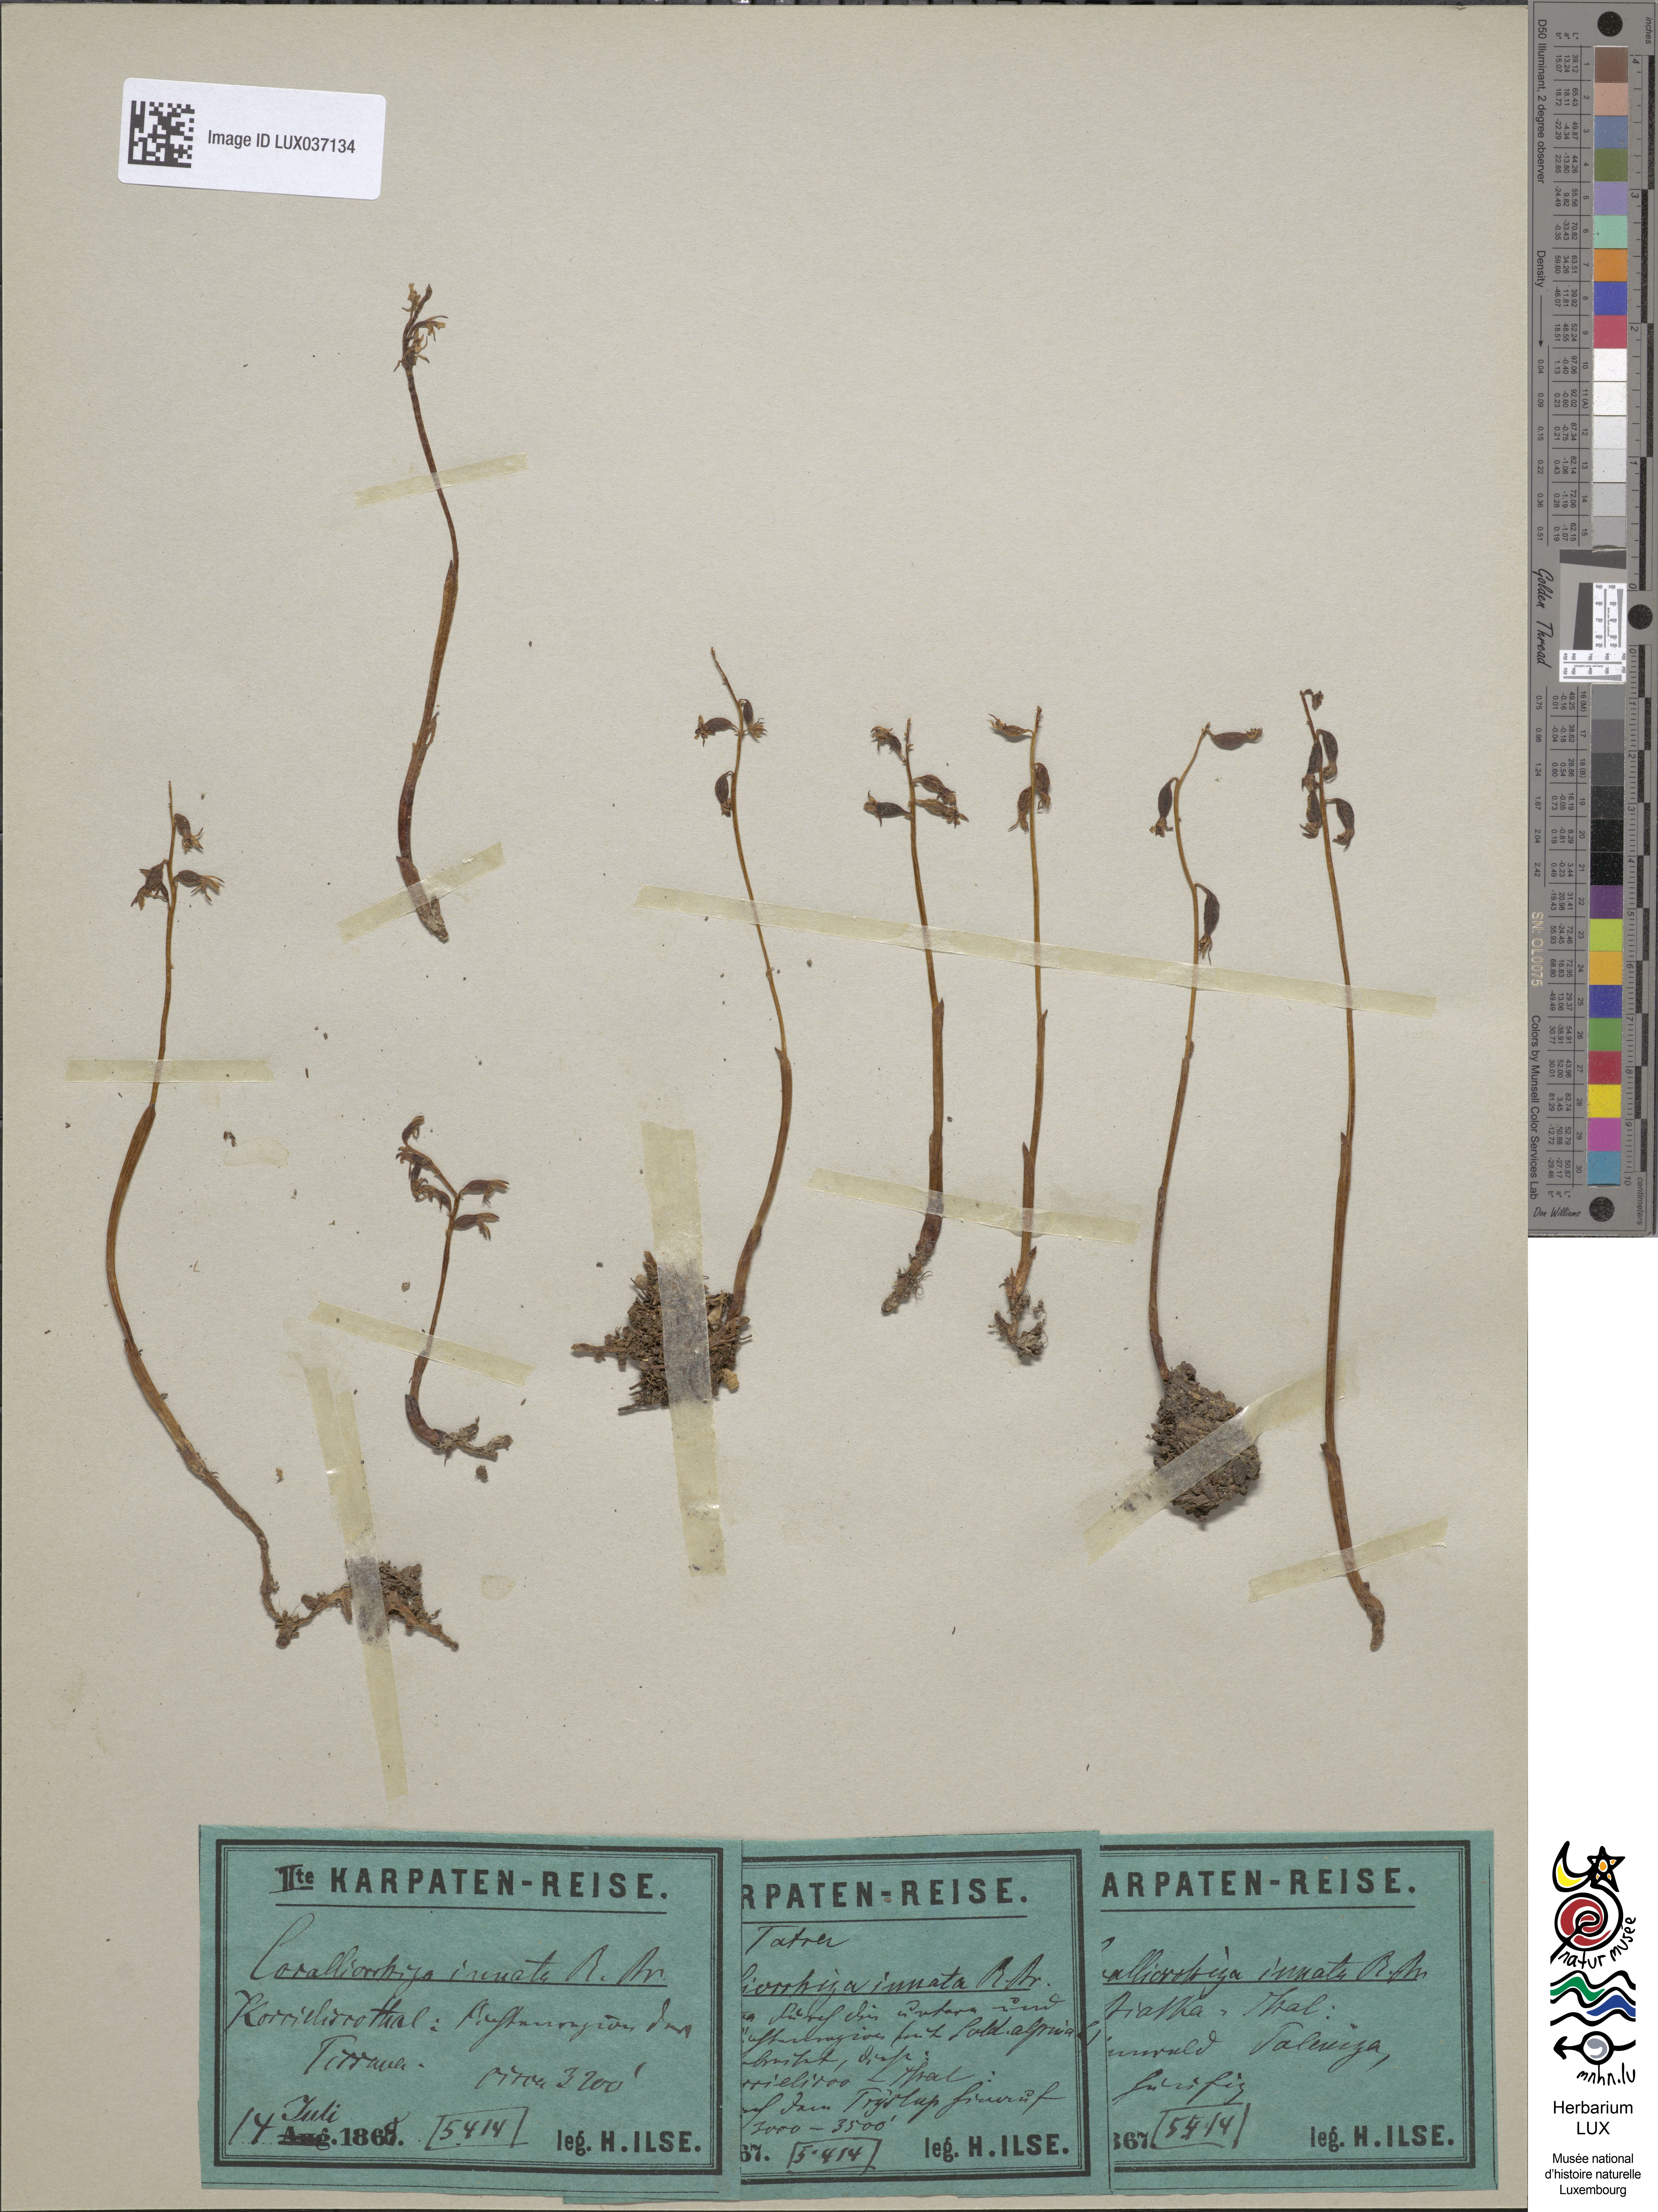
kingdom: Plantae
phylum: Tracheophyta
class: Liliopsida
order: Asparagales
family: Orchidaceae
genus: Corallorhiza
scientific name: Corallorhiza trifida
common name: Yellow coralroot
